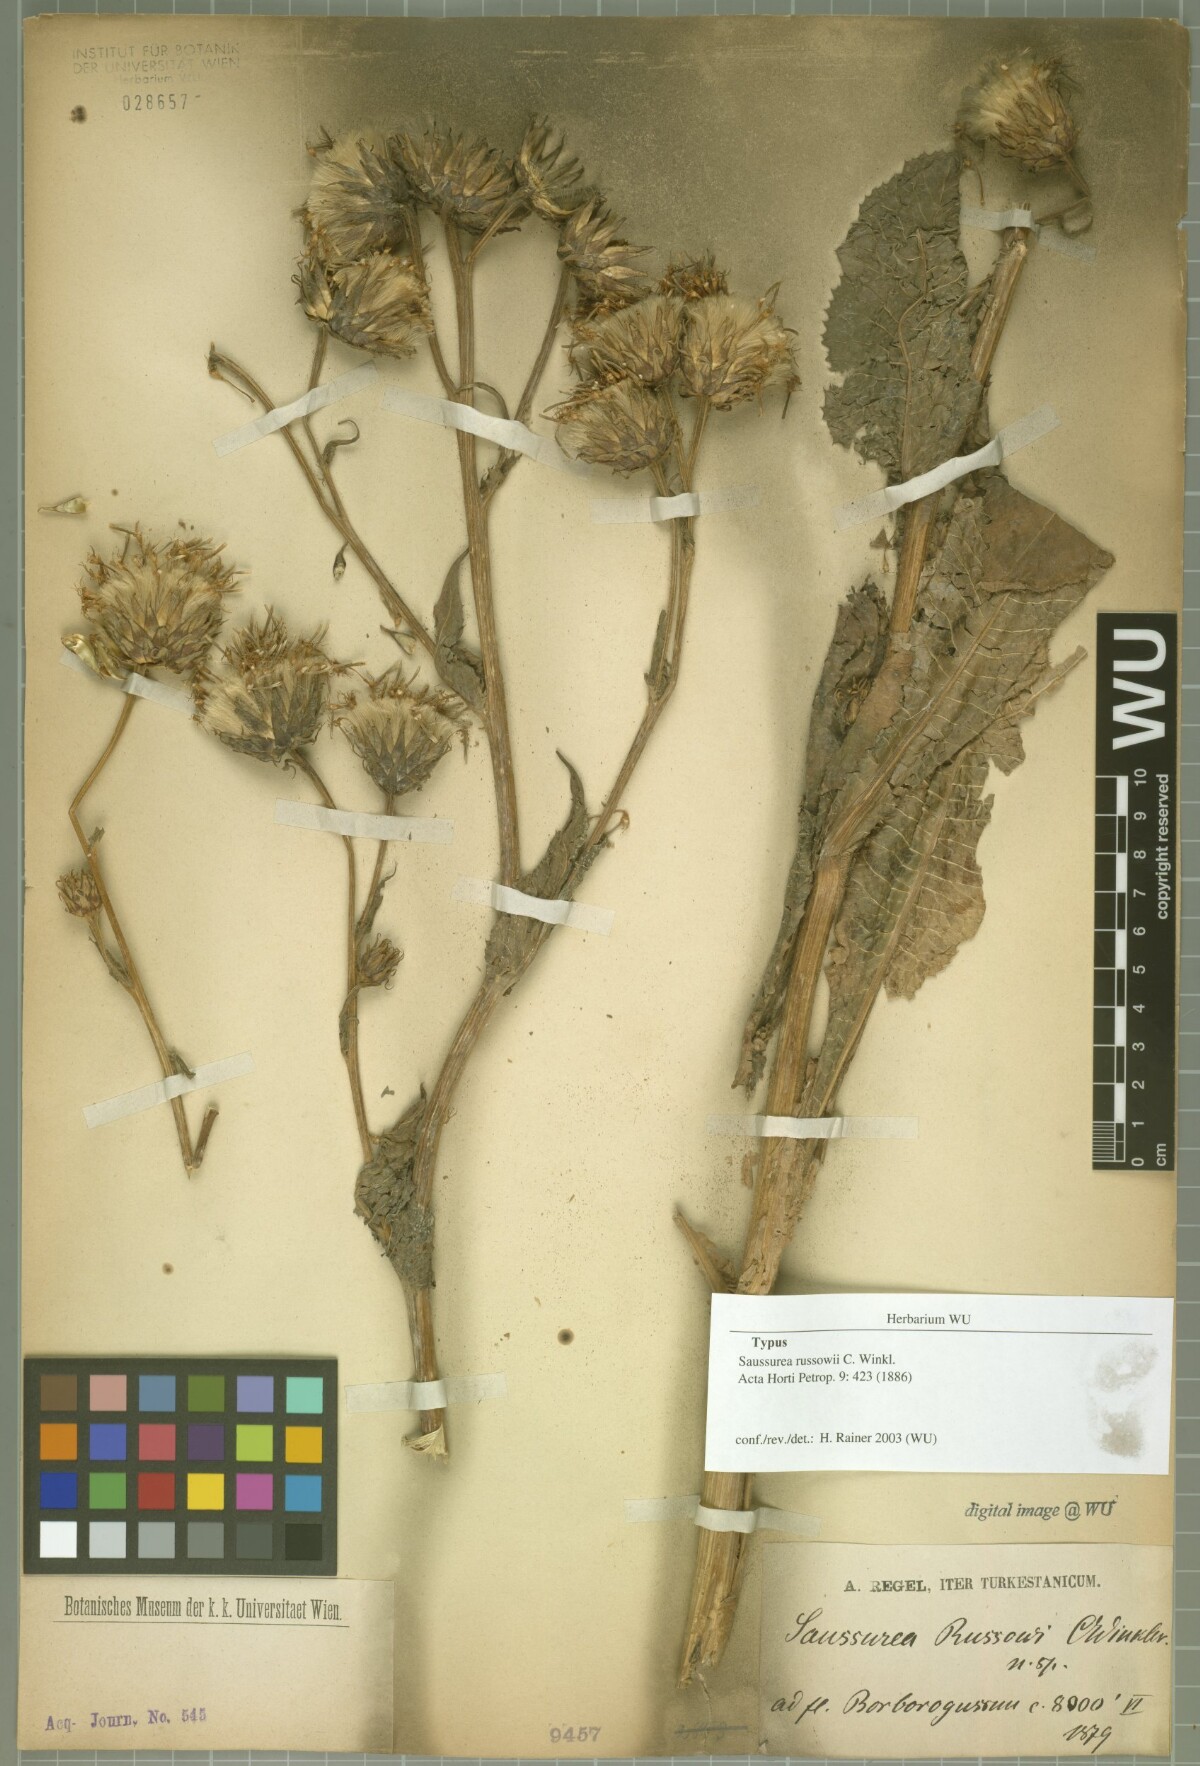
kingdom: Plantae
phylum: Tracheophyta
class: Magnoliopsida
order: Asterales
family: Asteraceae
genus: Saussurea
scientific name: Saussurea sordida
